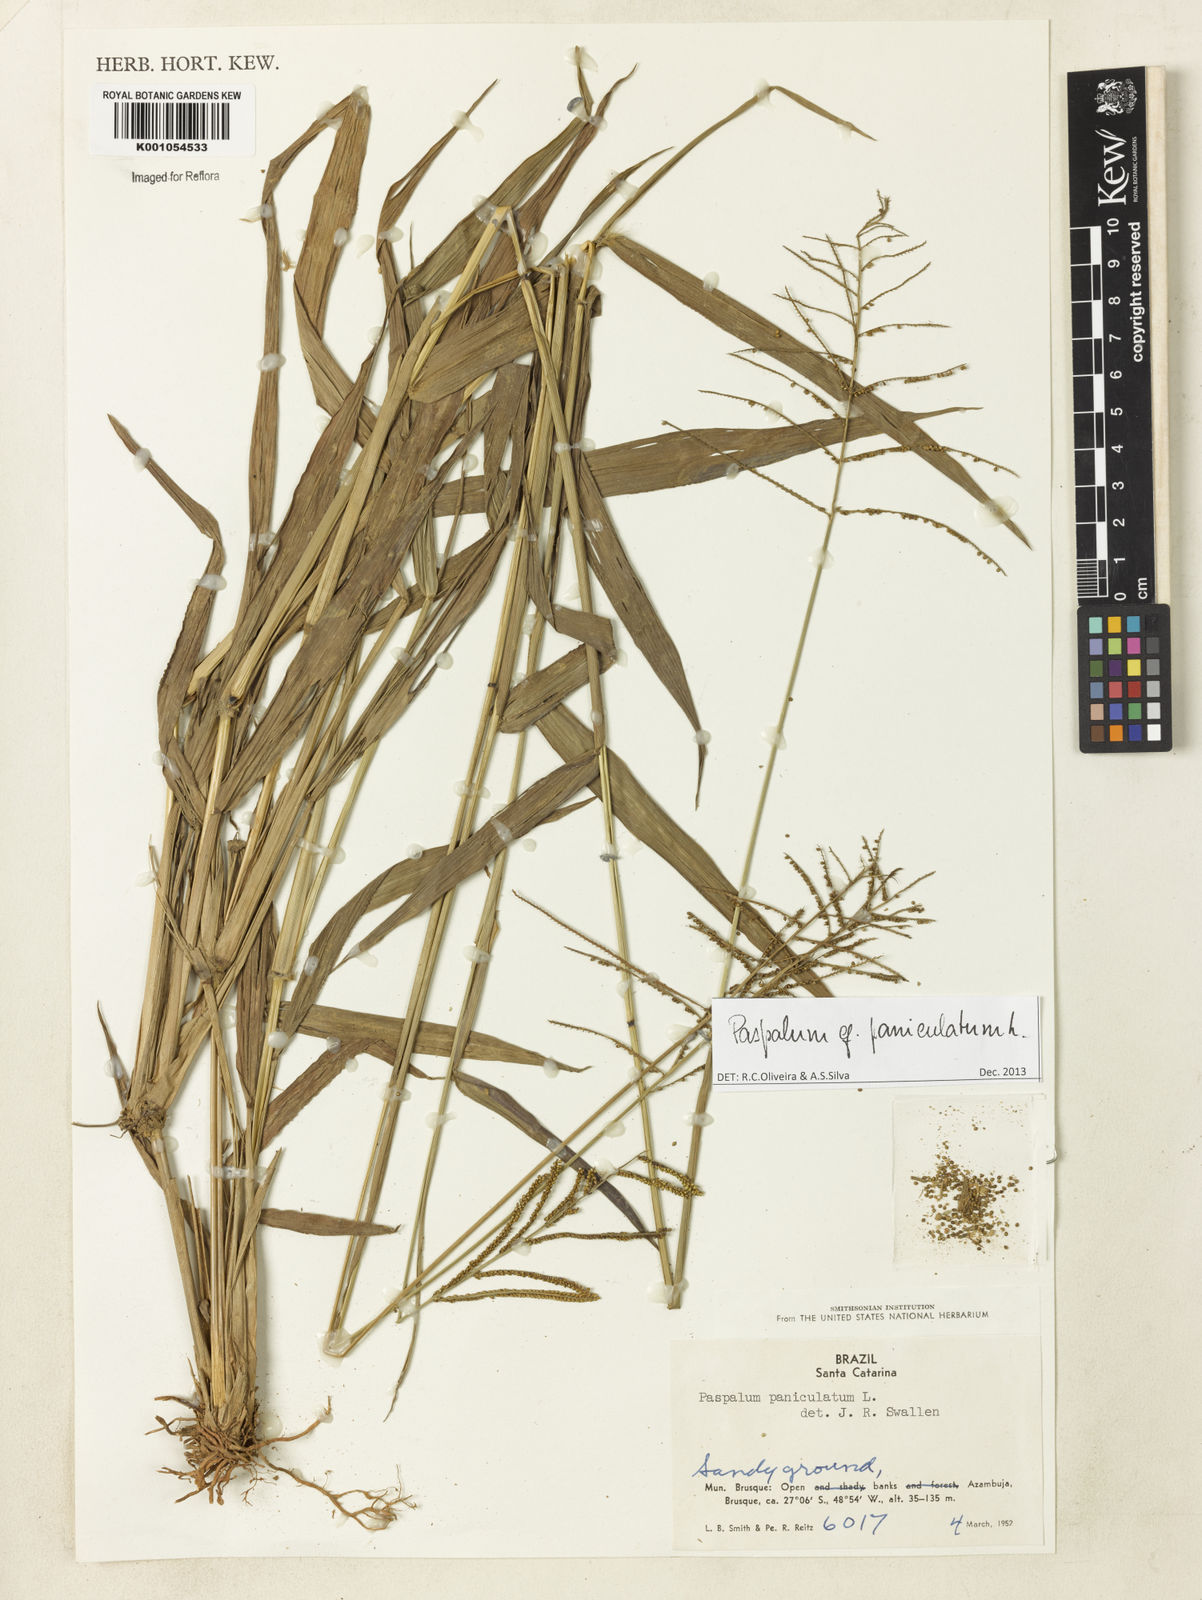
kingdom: Plantae
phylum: Tracheophyta
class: Liliopsida
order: Poales
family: Poaceae
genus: Paspalum
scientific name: Paspalum paniculatum
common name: Arrocillo
